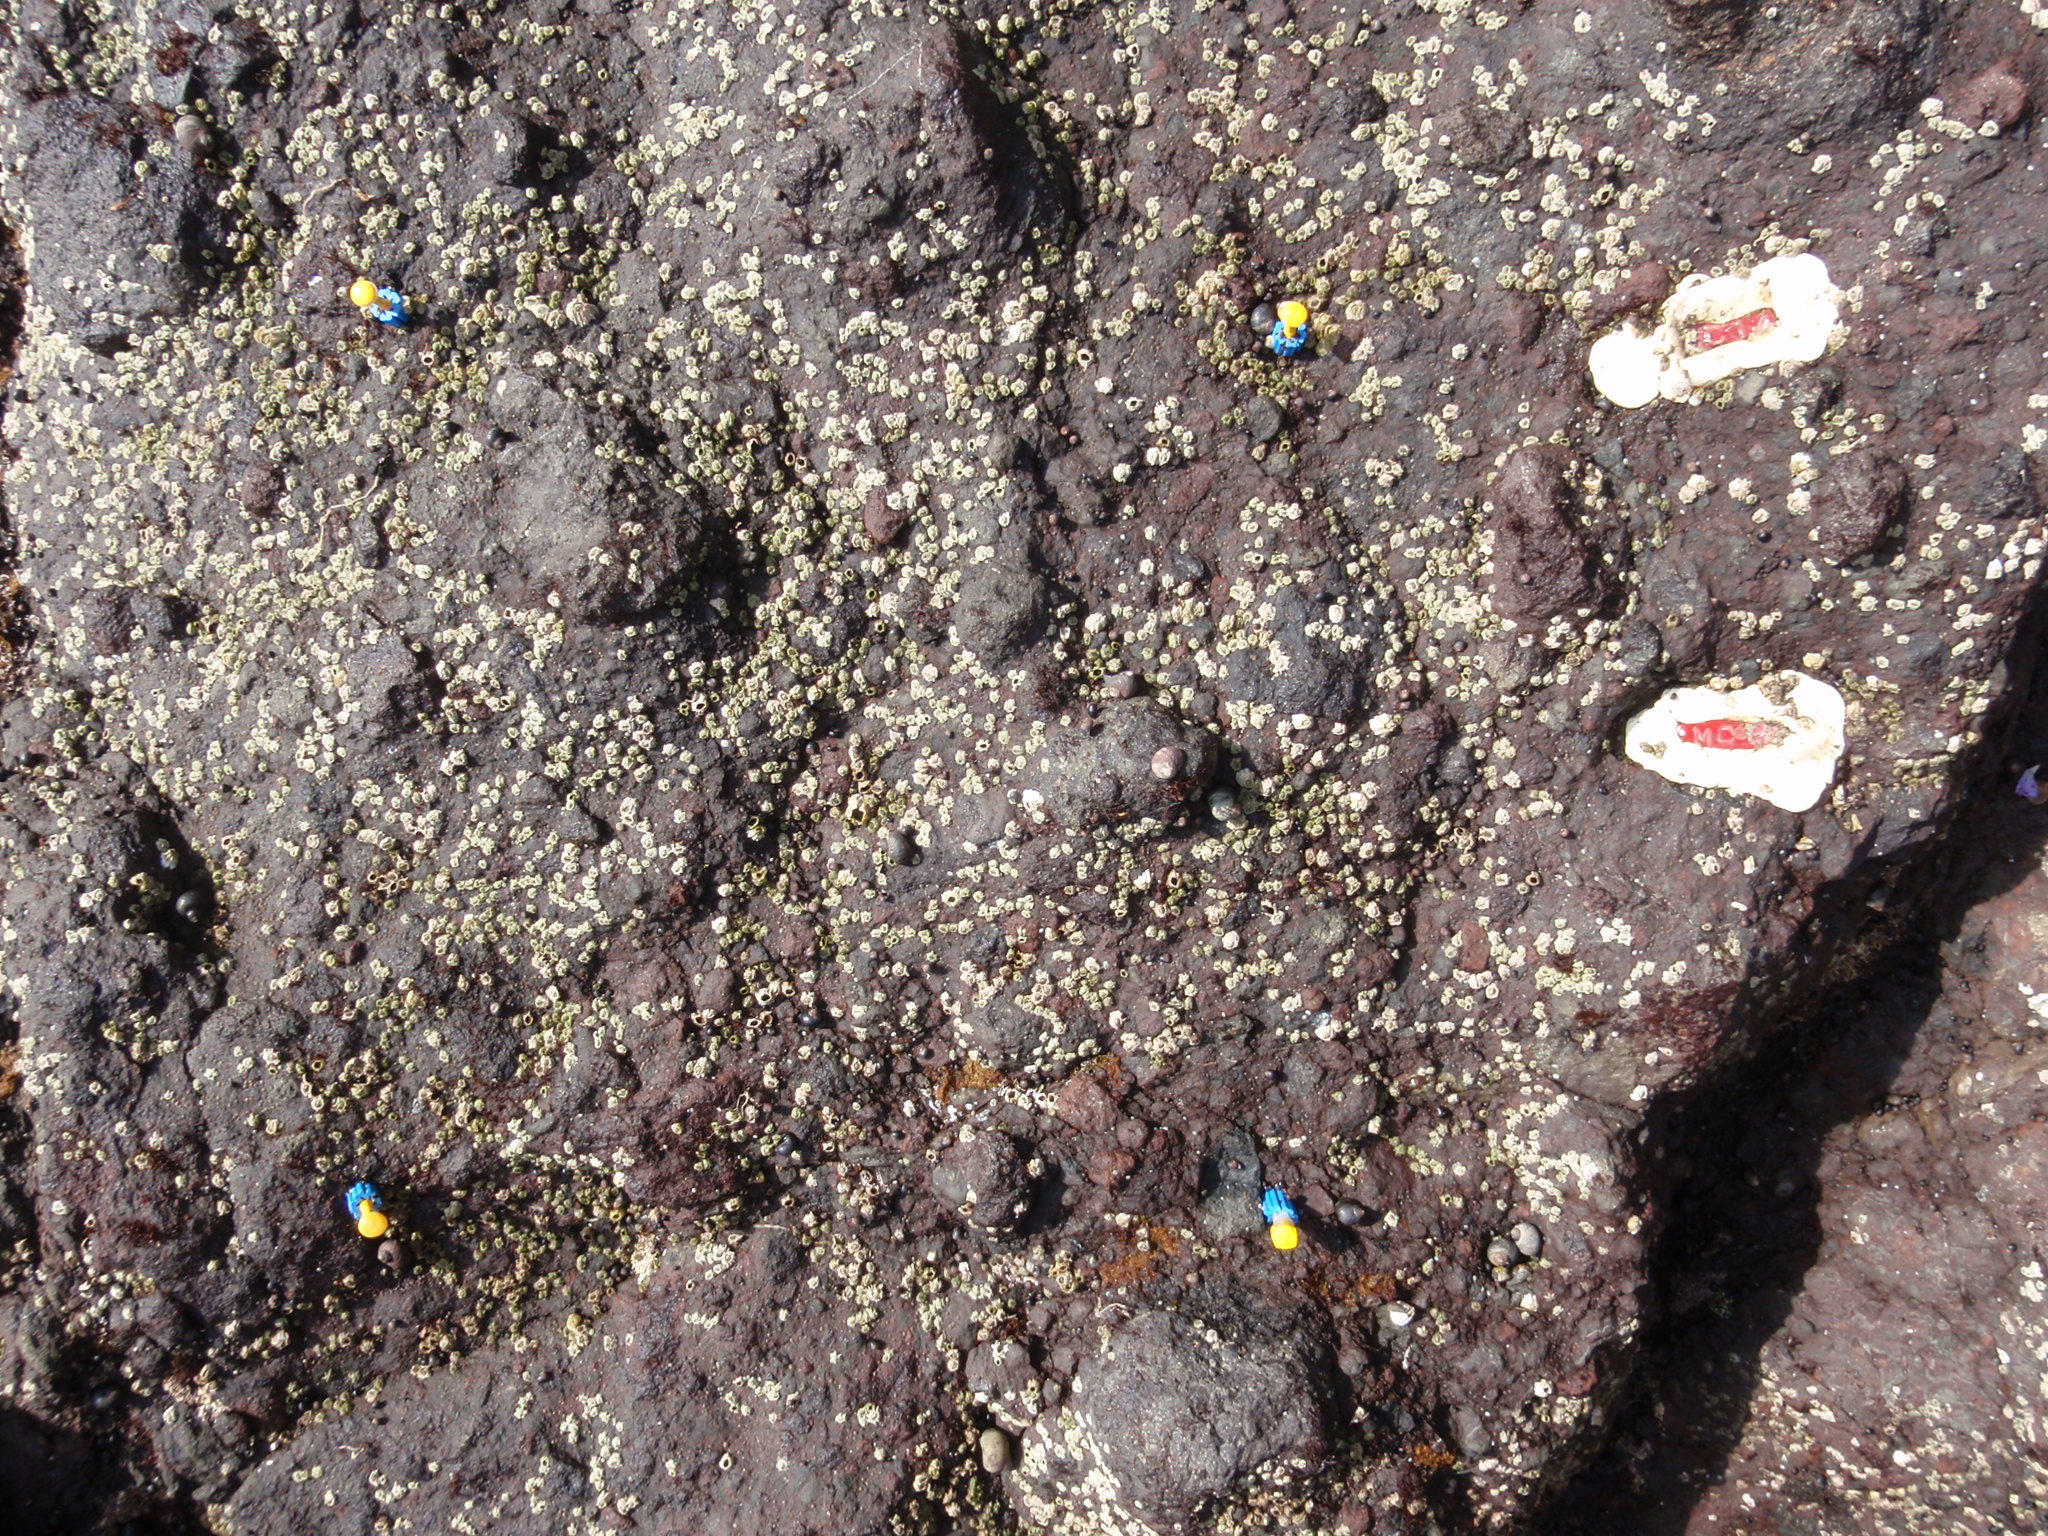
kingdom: Chromista
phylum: Ochrophyta
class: Phaeophyceae
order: Scytosiphonales
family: Scytosiphonaceae
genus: Analipus
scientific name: Analipus japonicus
